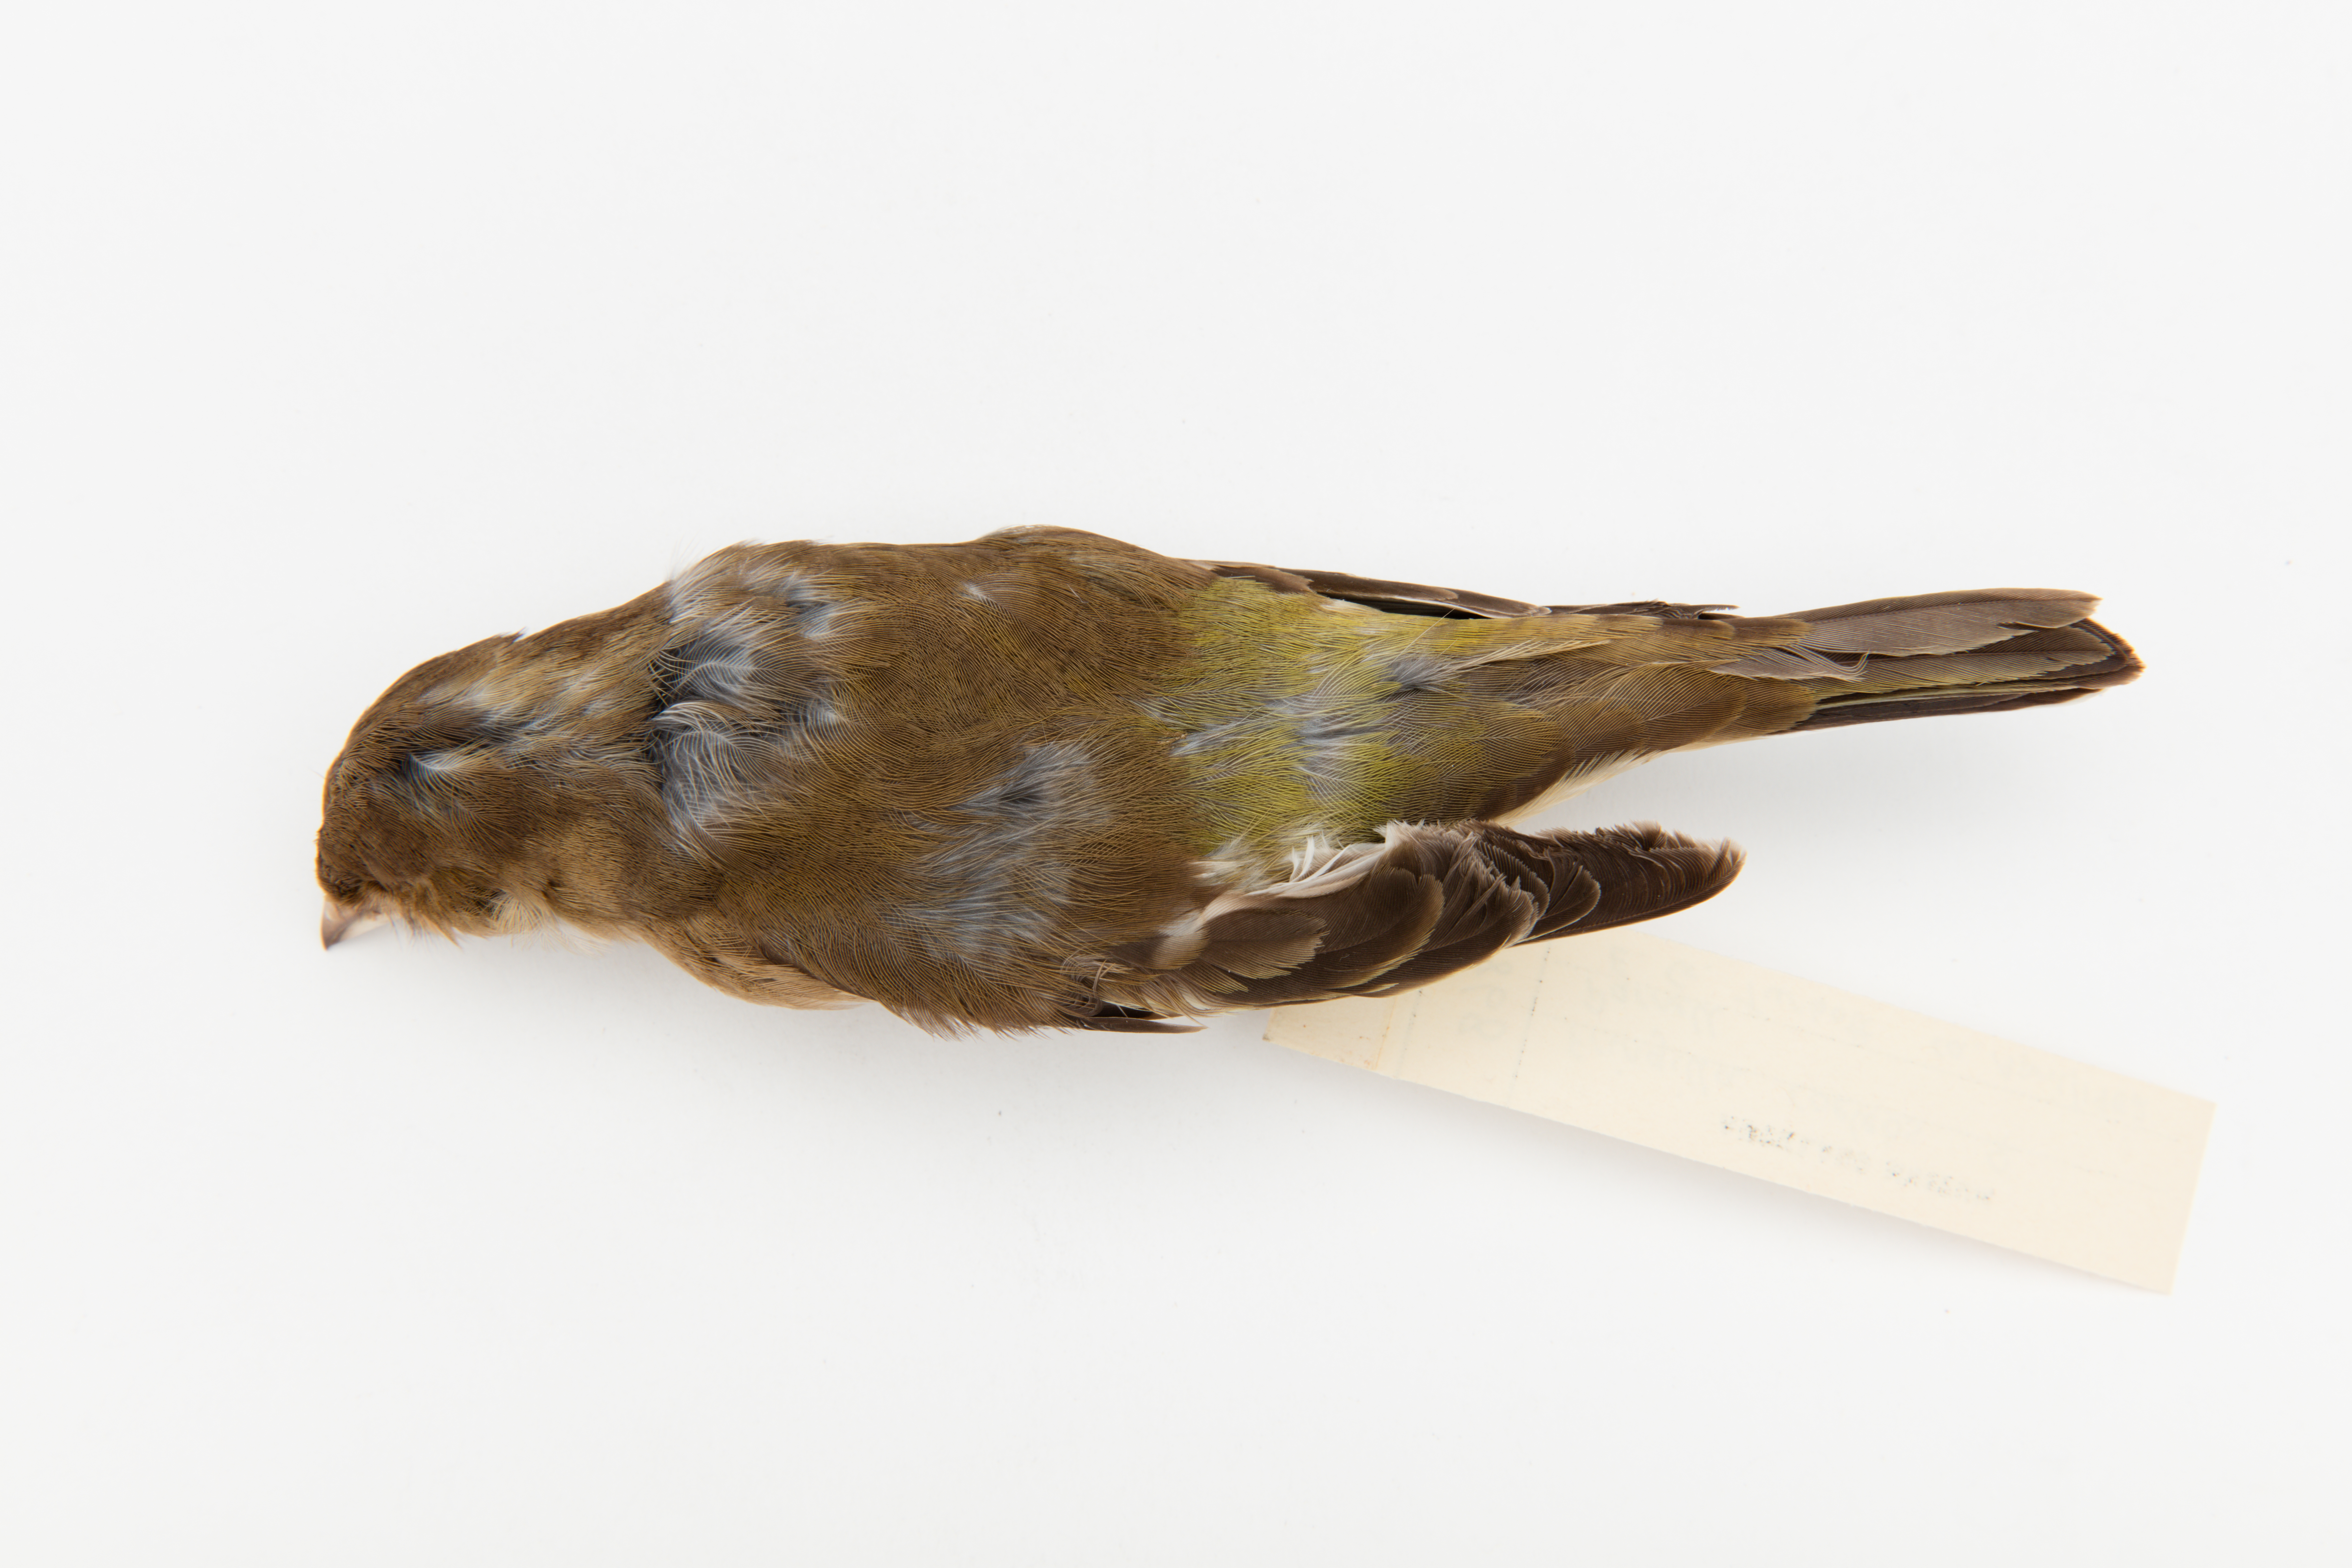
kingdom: Animalia
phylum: Chordata
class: Aves
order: Passeriformes
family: Fringillidae
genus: Fringilla
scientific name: Fringilla coelebs
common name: Common chaffinch
